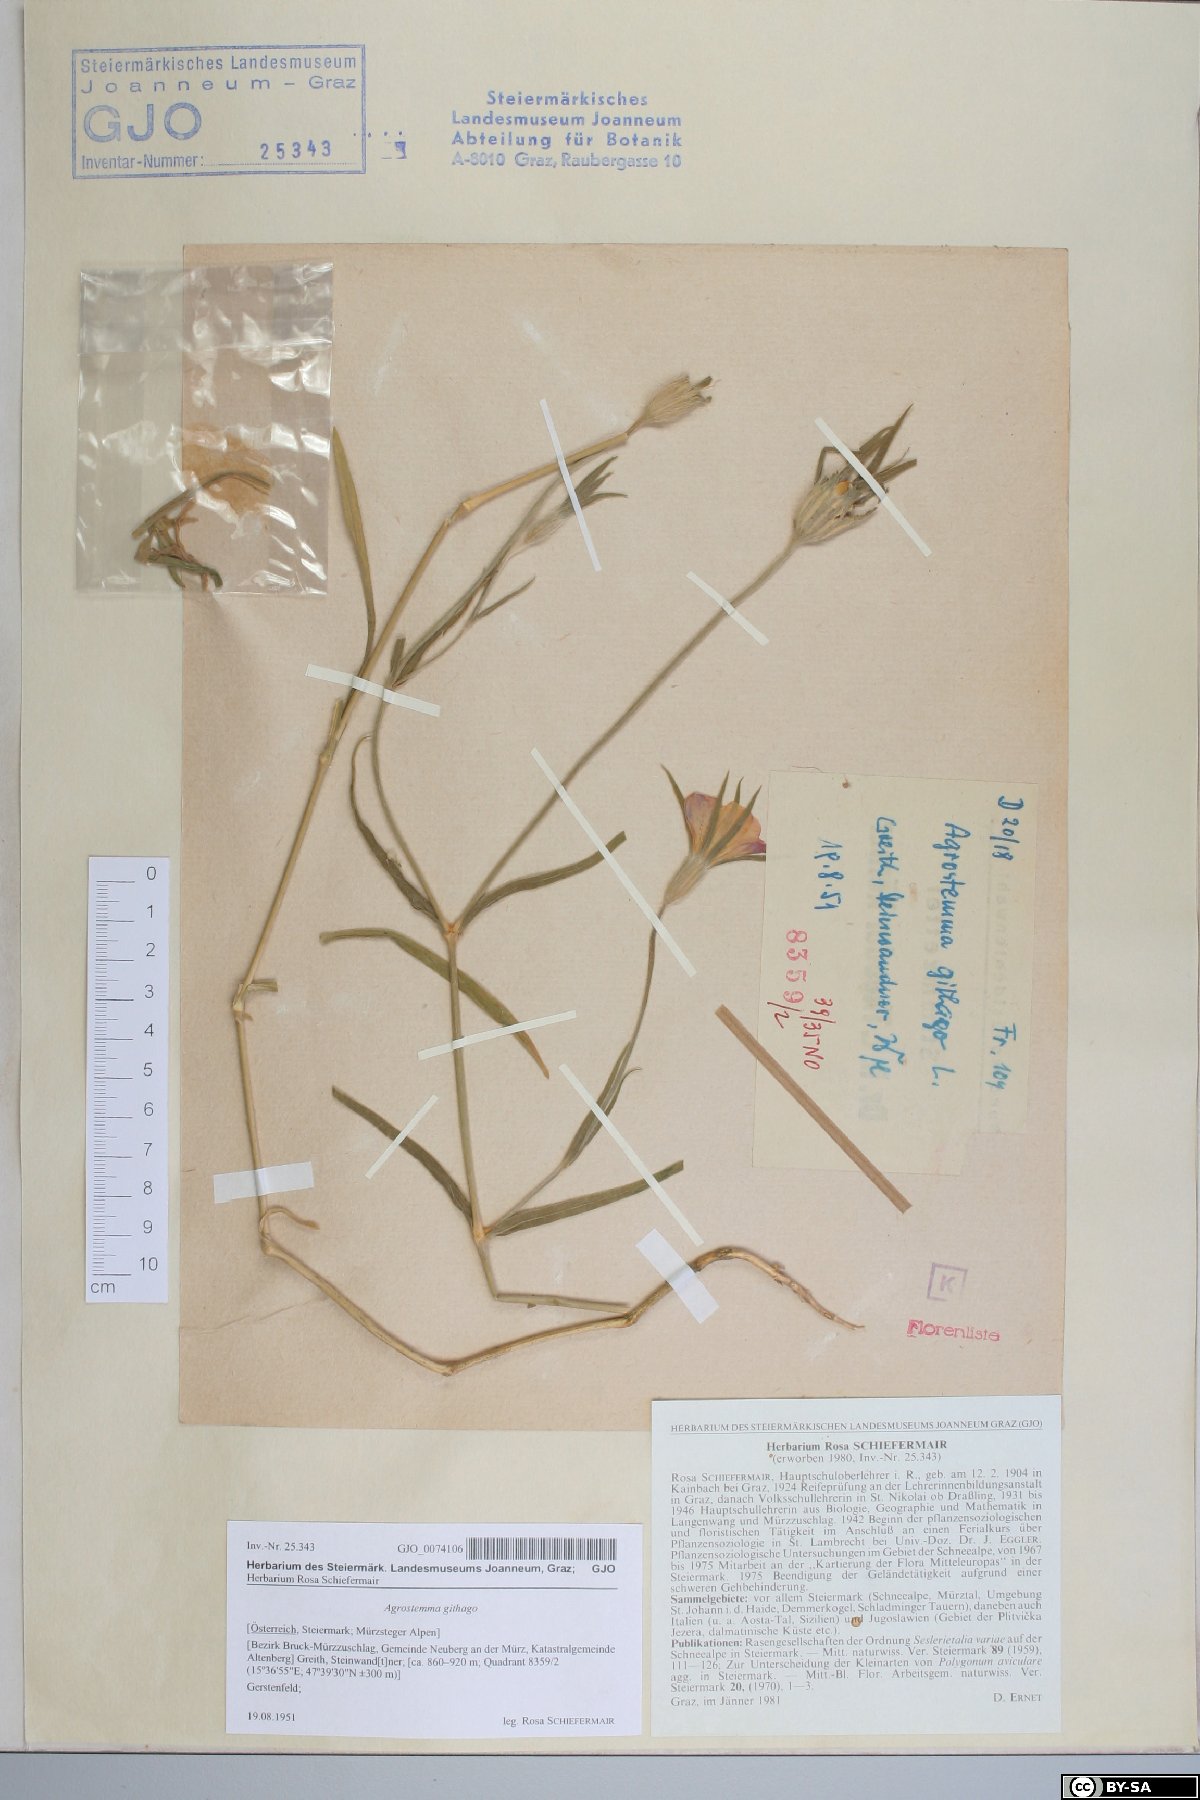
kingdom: Plantae
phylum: Tracheophyta
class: Magnoliopsida
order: Caryophyllales
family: Caryophyllaceae
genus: Agrostemma
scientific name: Agrostemma githago
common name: Common corncockle
